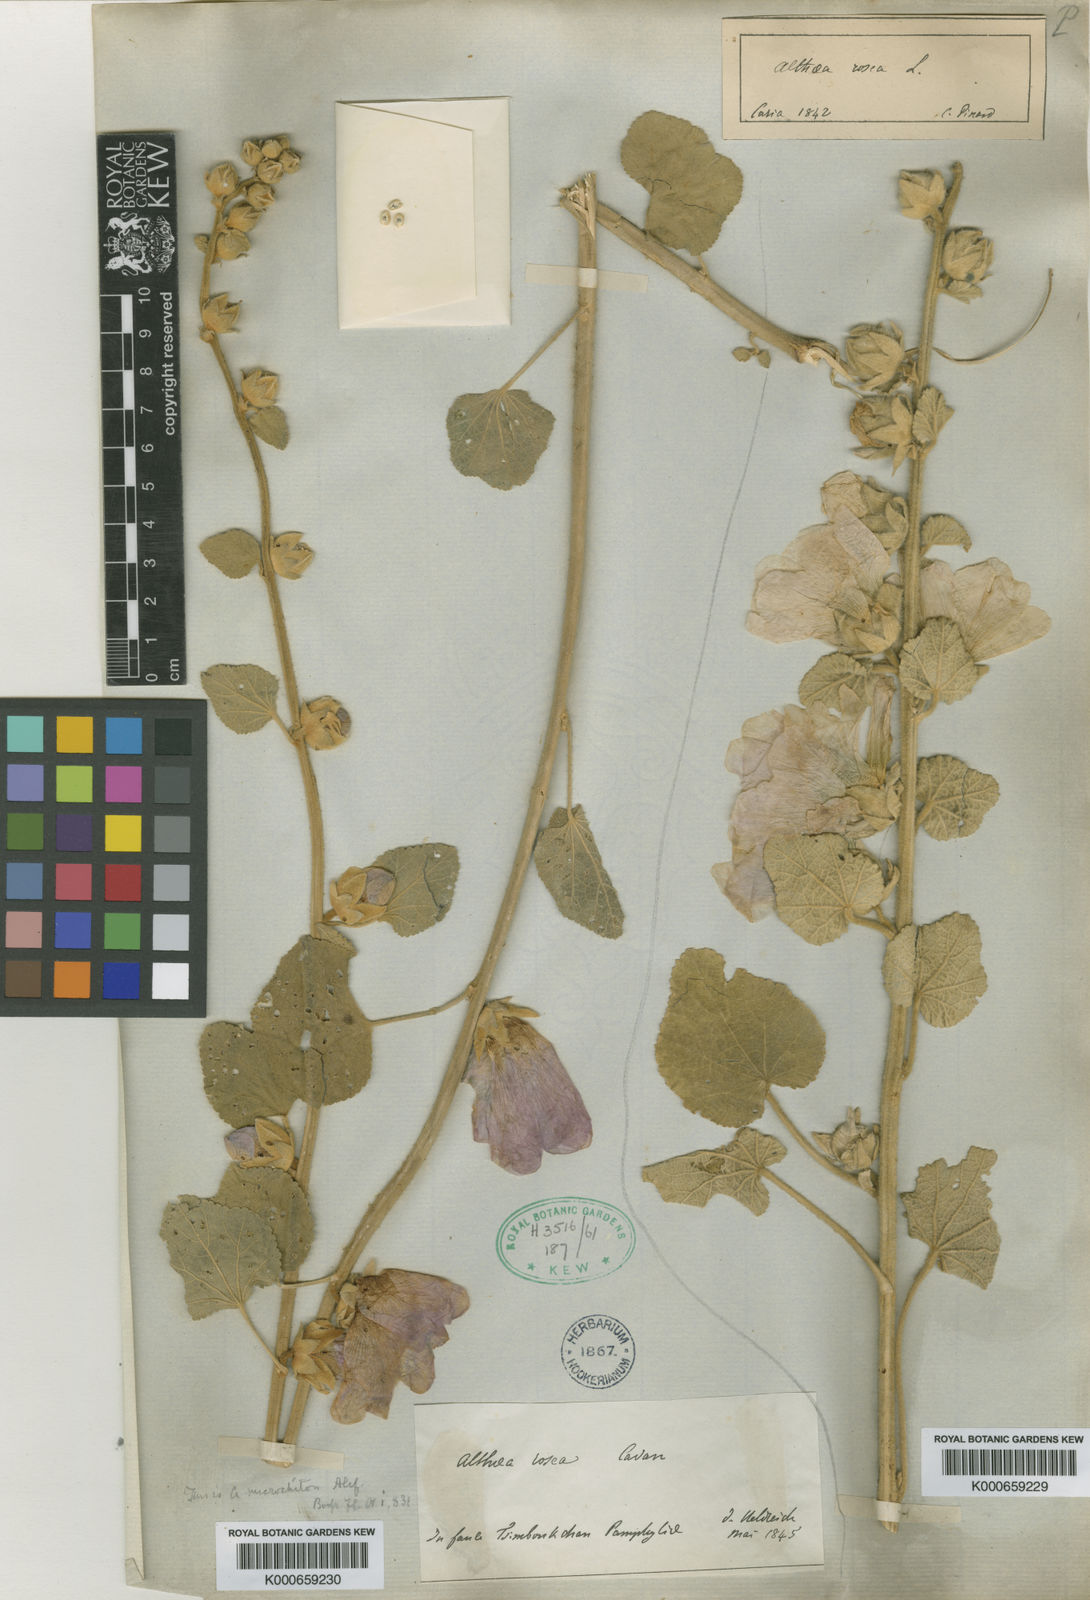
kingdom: Plantae
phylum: Tracheophyta
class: Magnoliopsida
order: Malvales
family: Malvaceae
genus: Alcea
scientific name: Alcea rosea
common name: Hollyhock
